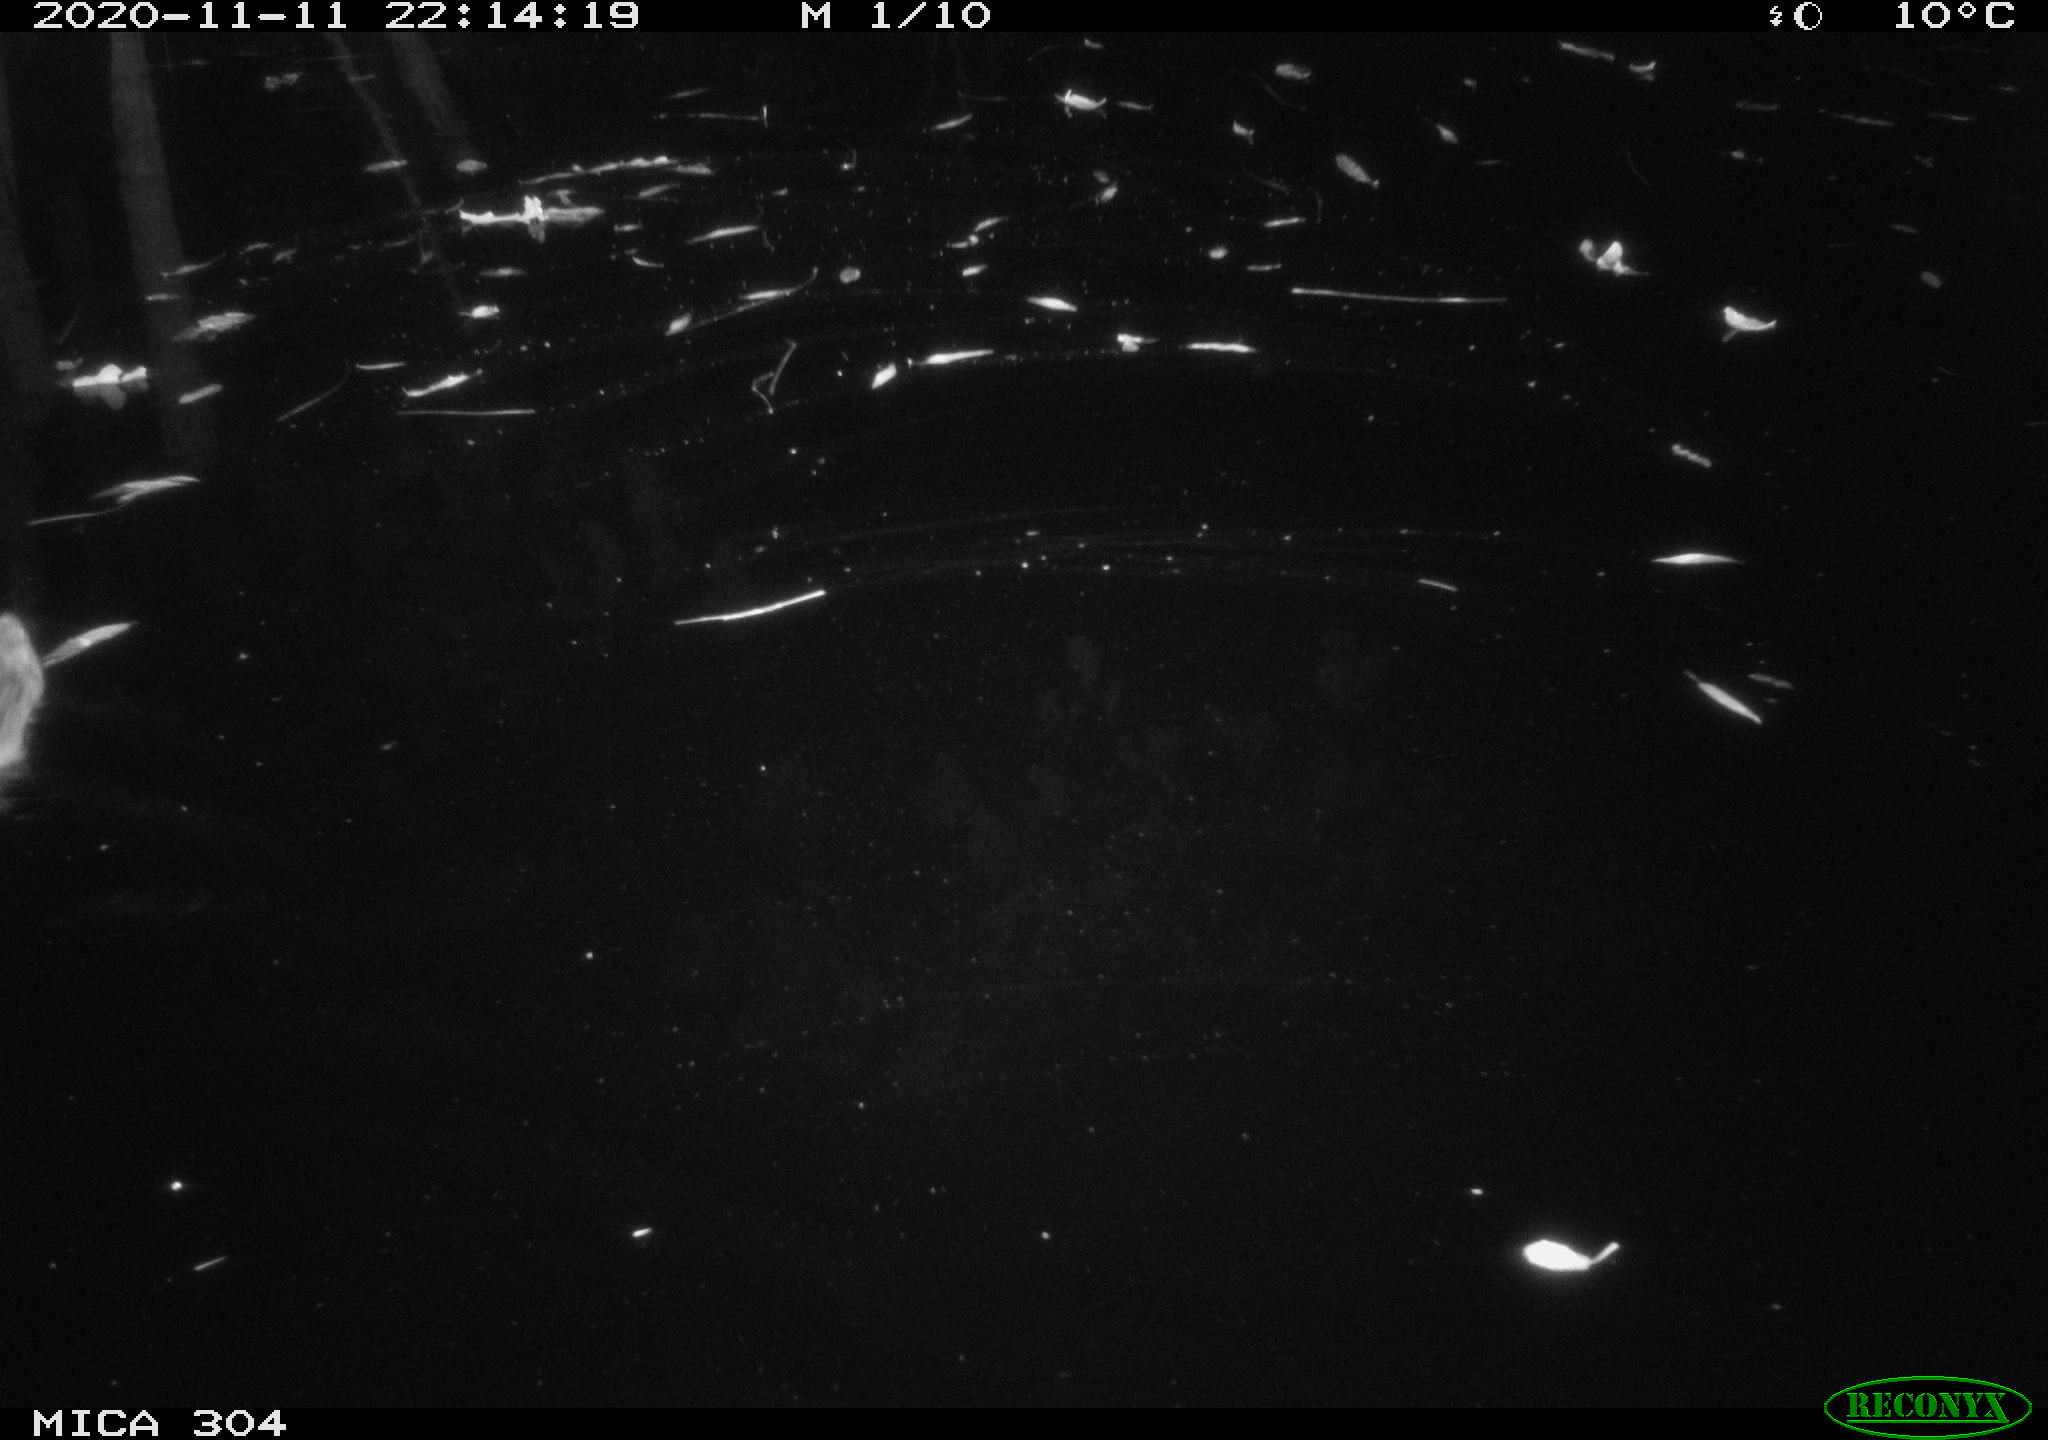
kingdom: Animalia
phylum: Chordata
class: Mammalia
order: Rodentia
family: Cricetidae
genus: Ondatra
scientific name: Ondatra zibethicus
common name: Muskrat
